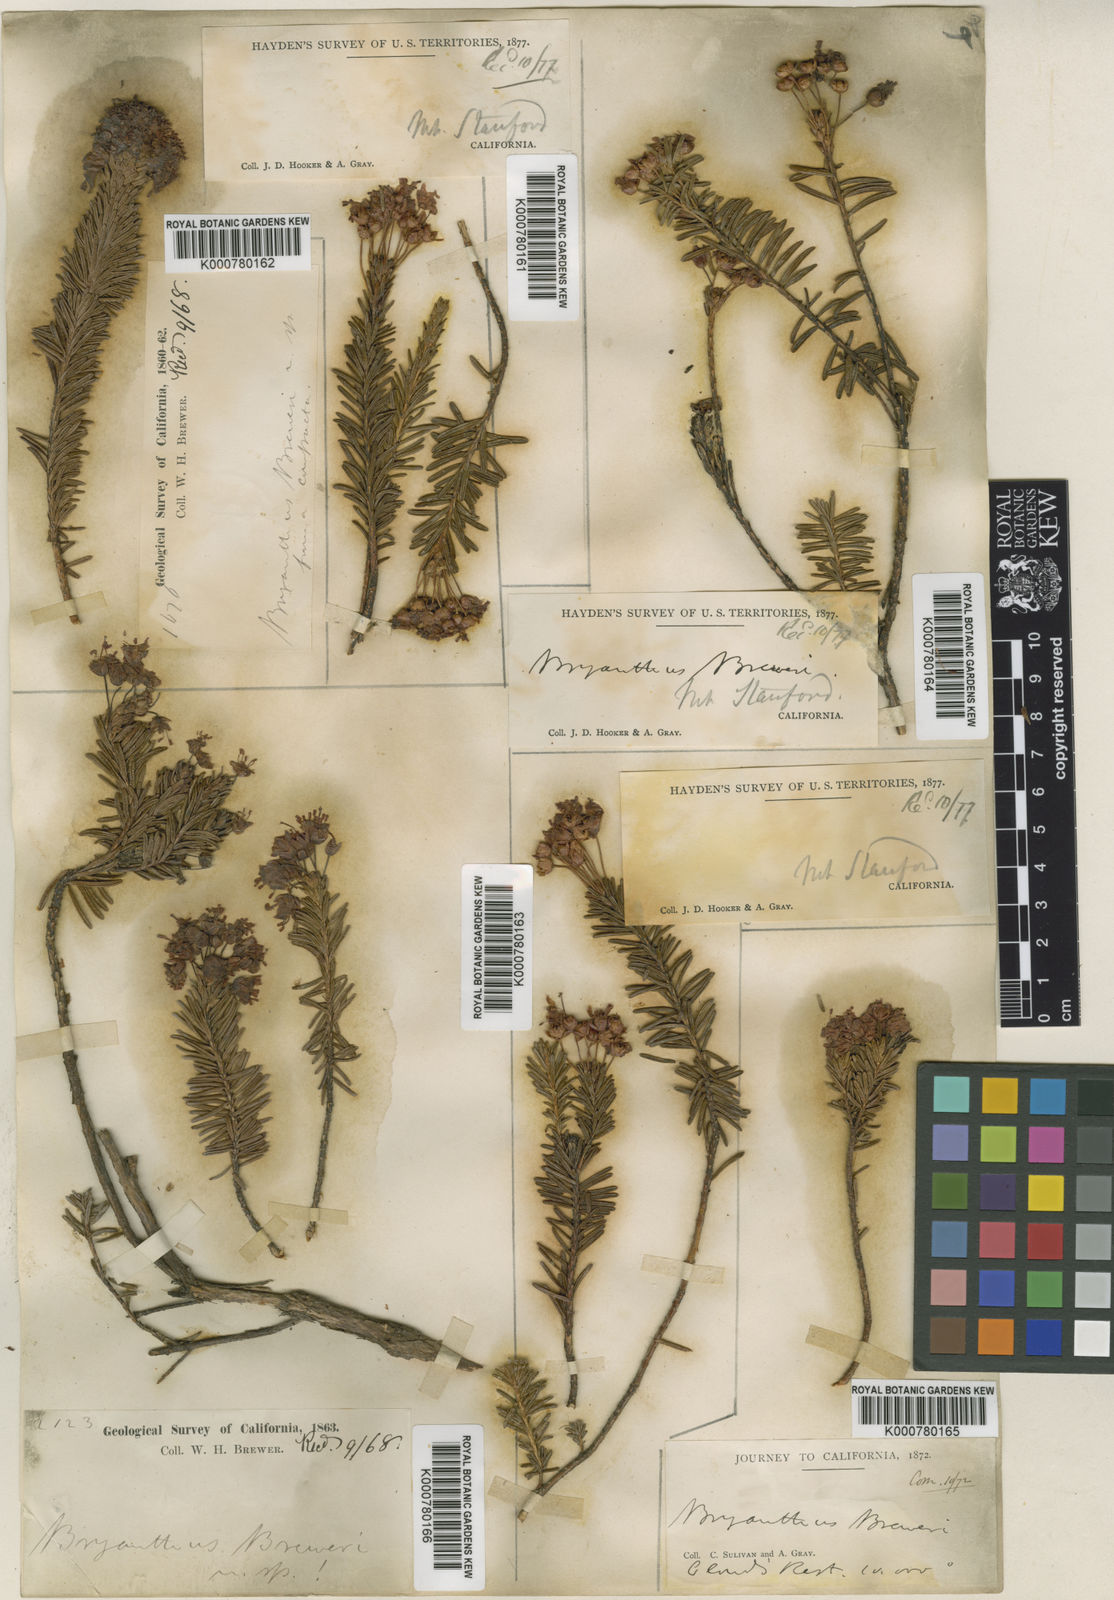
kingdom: Plantae
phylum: Tracheophyta
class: Magnoliopsida
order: Ericales
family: Ericaceae
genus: Phyllodoce
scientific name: Phyllodoce breweri
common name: Brewer's mountain-heather
